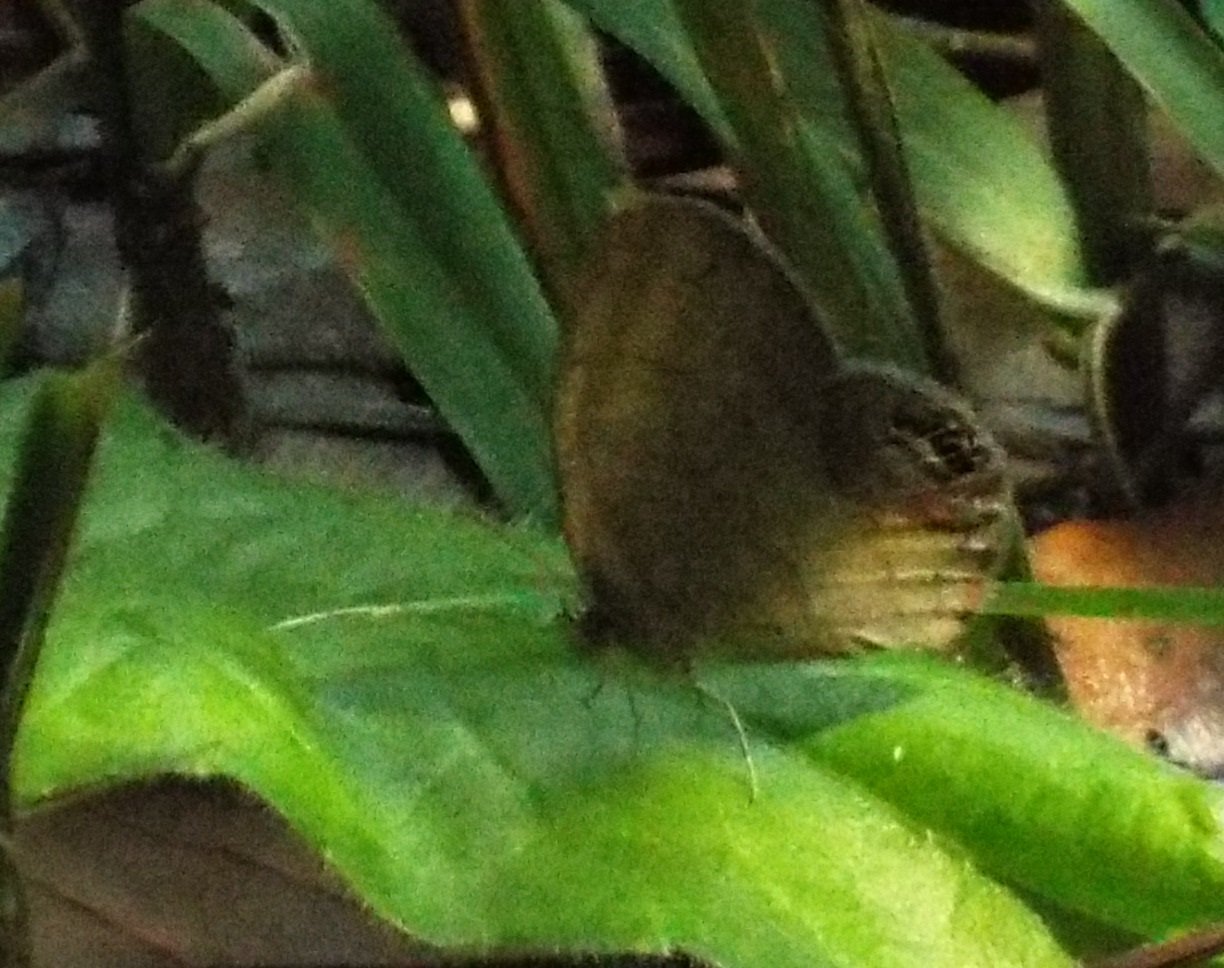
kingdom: Animalia
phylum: Arthropoda
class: Insecta
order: Lepidoptera
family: Nymphalidae
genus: Euptychia
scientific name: Euptychia cornelius
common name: Gemmed Satyr
